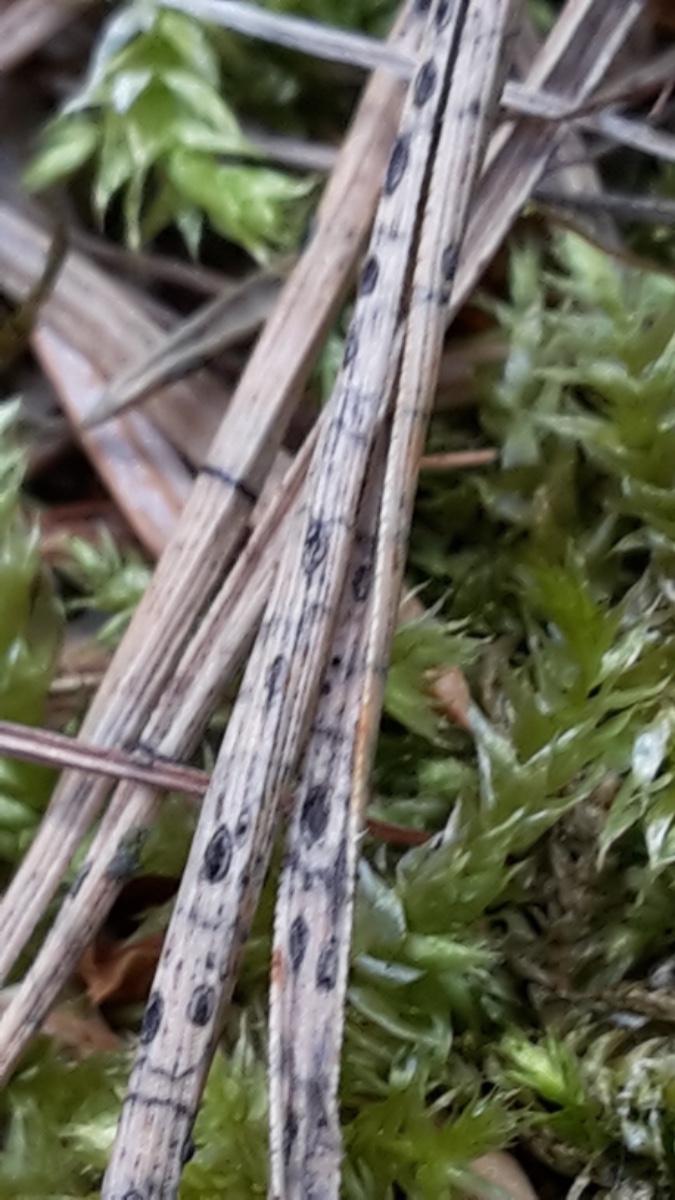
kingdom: Fungi
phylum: Ascomycota
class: Leotiomycetes
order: Rhytismatales
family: Rhytismataceae
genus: Lophodermium
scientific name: Lophodermium pinastri
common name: fyrre-fureplet
